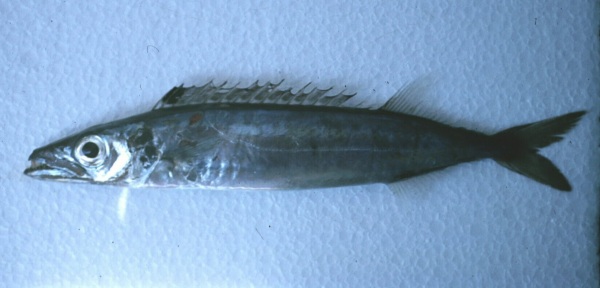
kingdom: Animalia
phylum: Chordata
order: Perciformes
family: Gempylidae
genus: Rexea
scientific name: Rexea prometheoides
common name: Royal escolar
